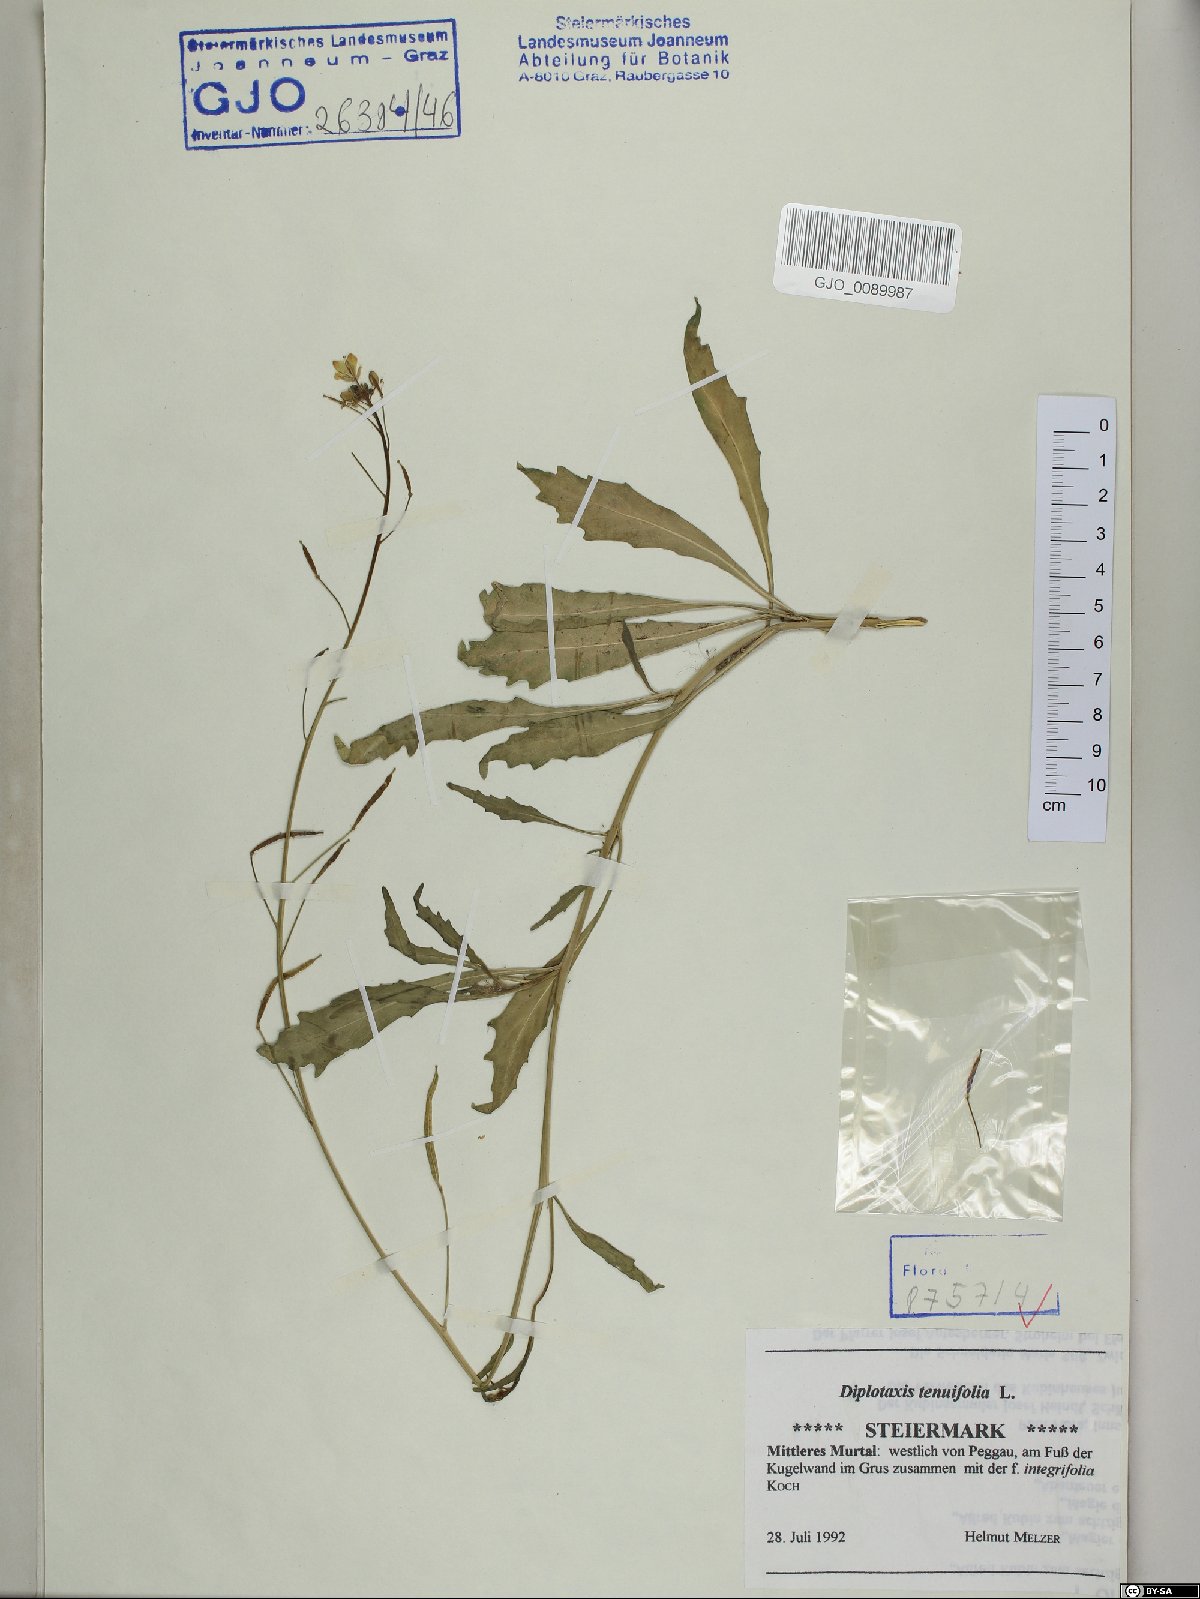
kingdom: Plantae
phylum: Tracheophyta
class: Magnoliopsida
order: Brassicales
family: Brassicaceae
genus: Diplotaxis
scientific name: Diplotaxis tenuifolia
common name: Perennial wall-rocket
